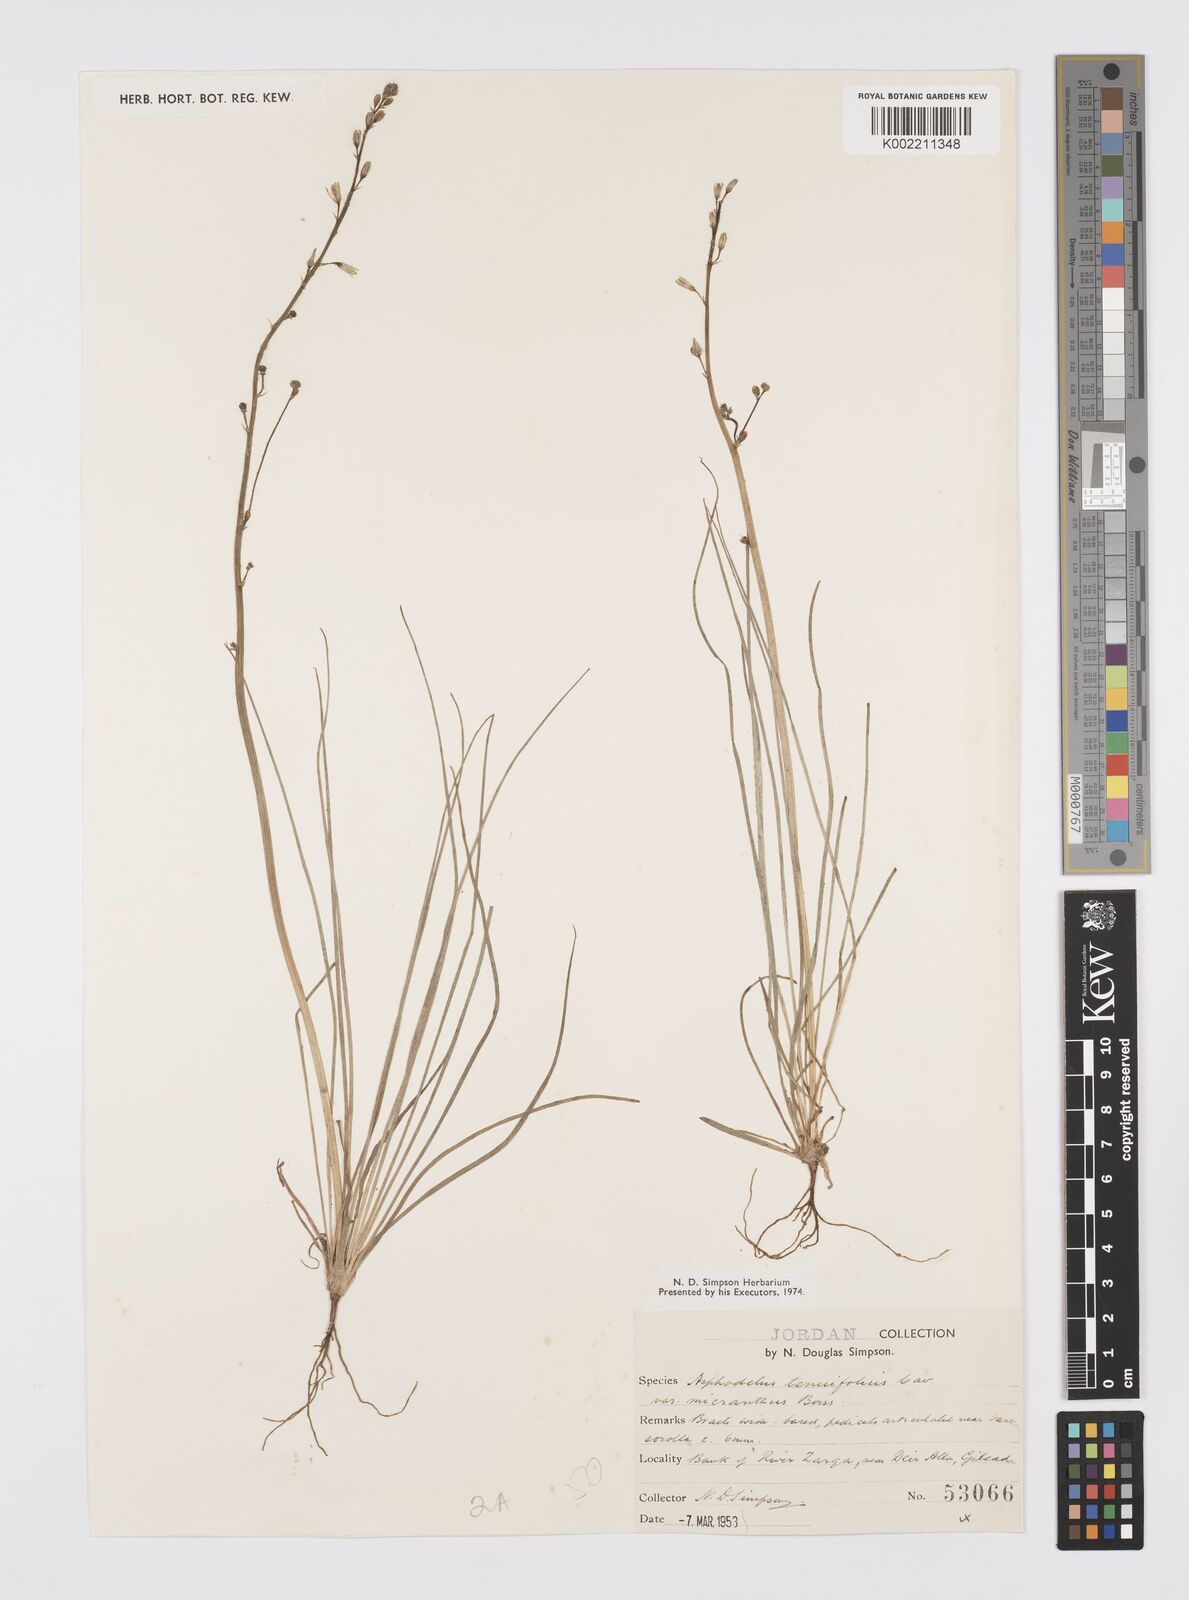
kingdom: Plantae
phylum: Tracheophyta
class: Liliopsida
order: Asparagales
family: Asphodelaceae
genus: Asphodelus
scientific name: Asphodelus tenuifolius
